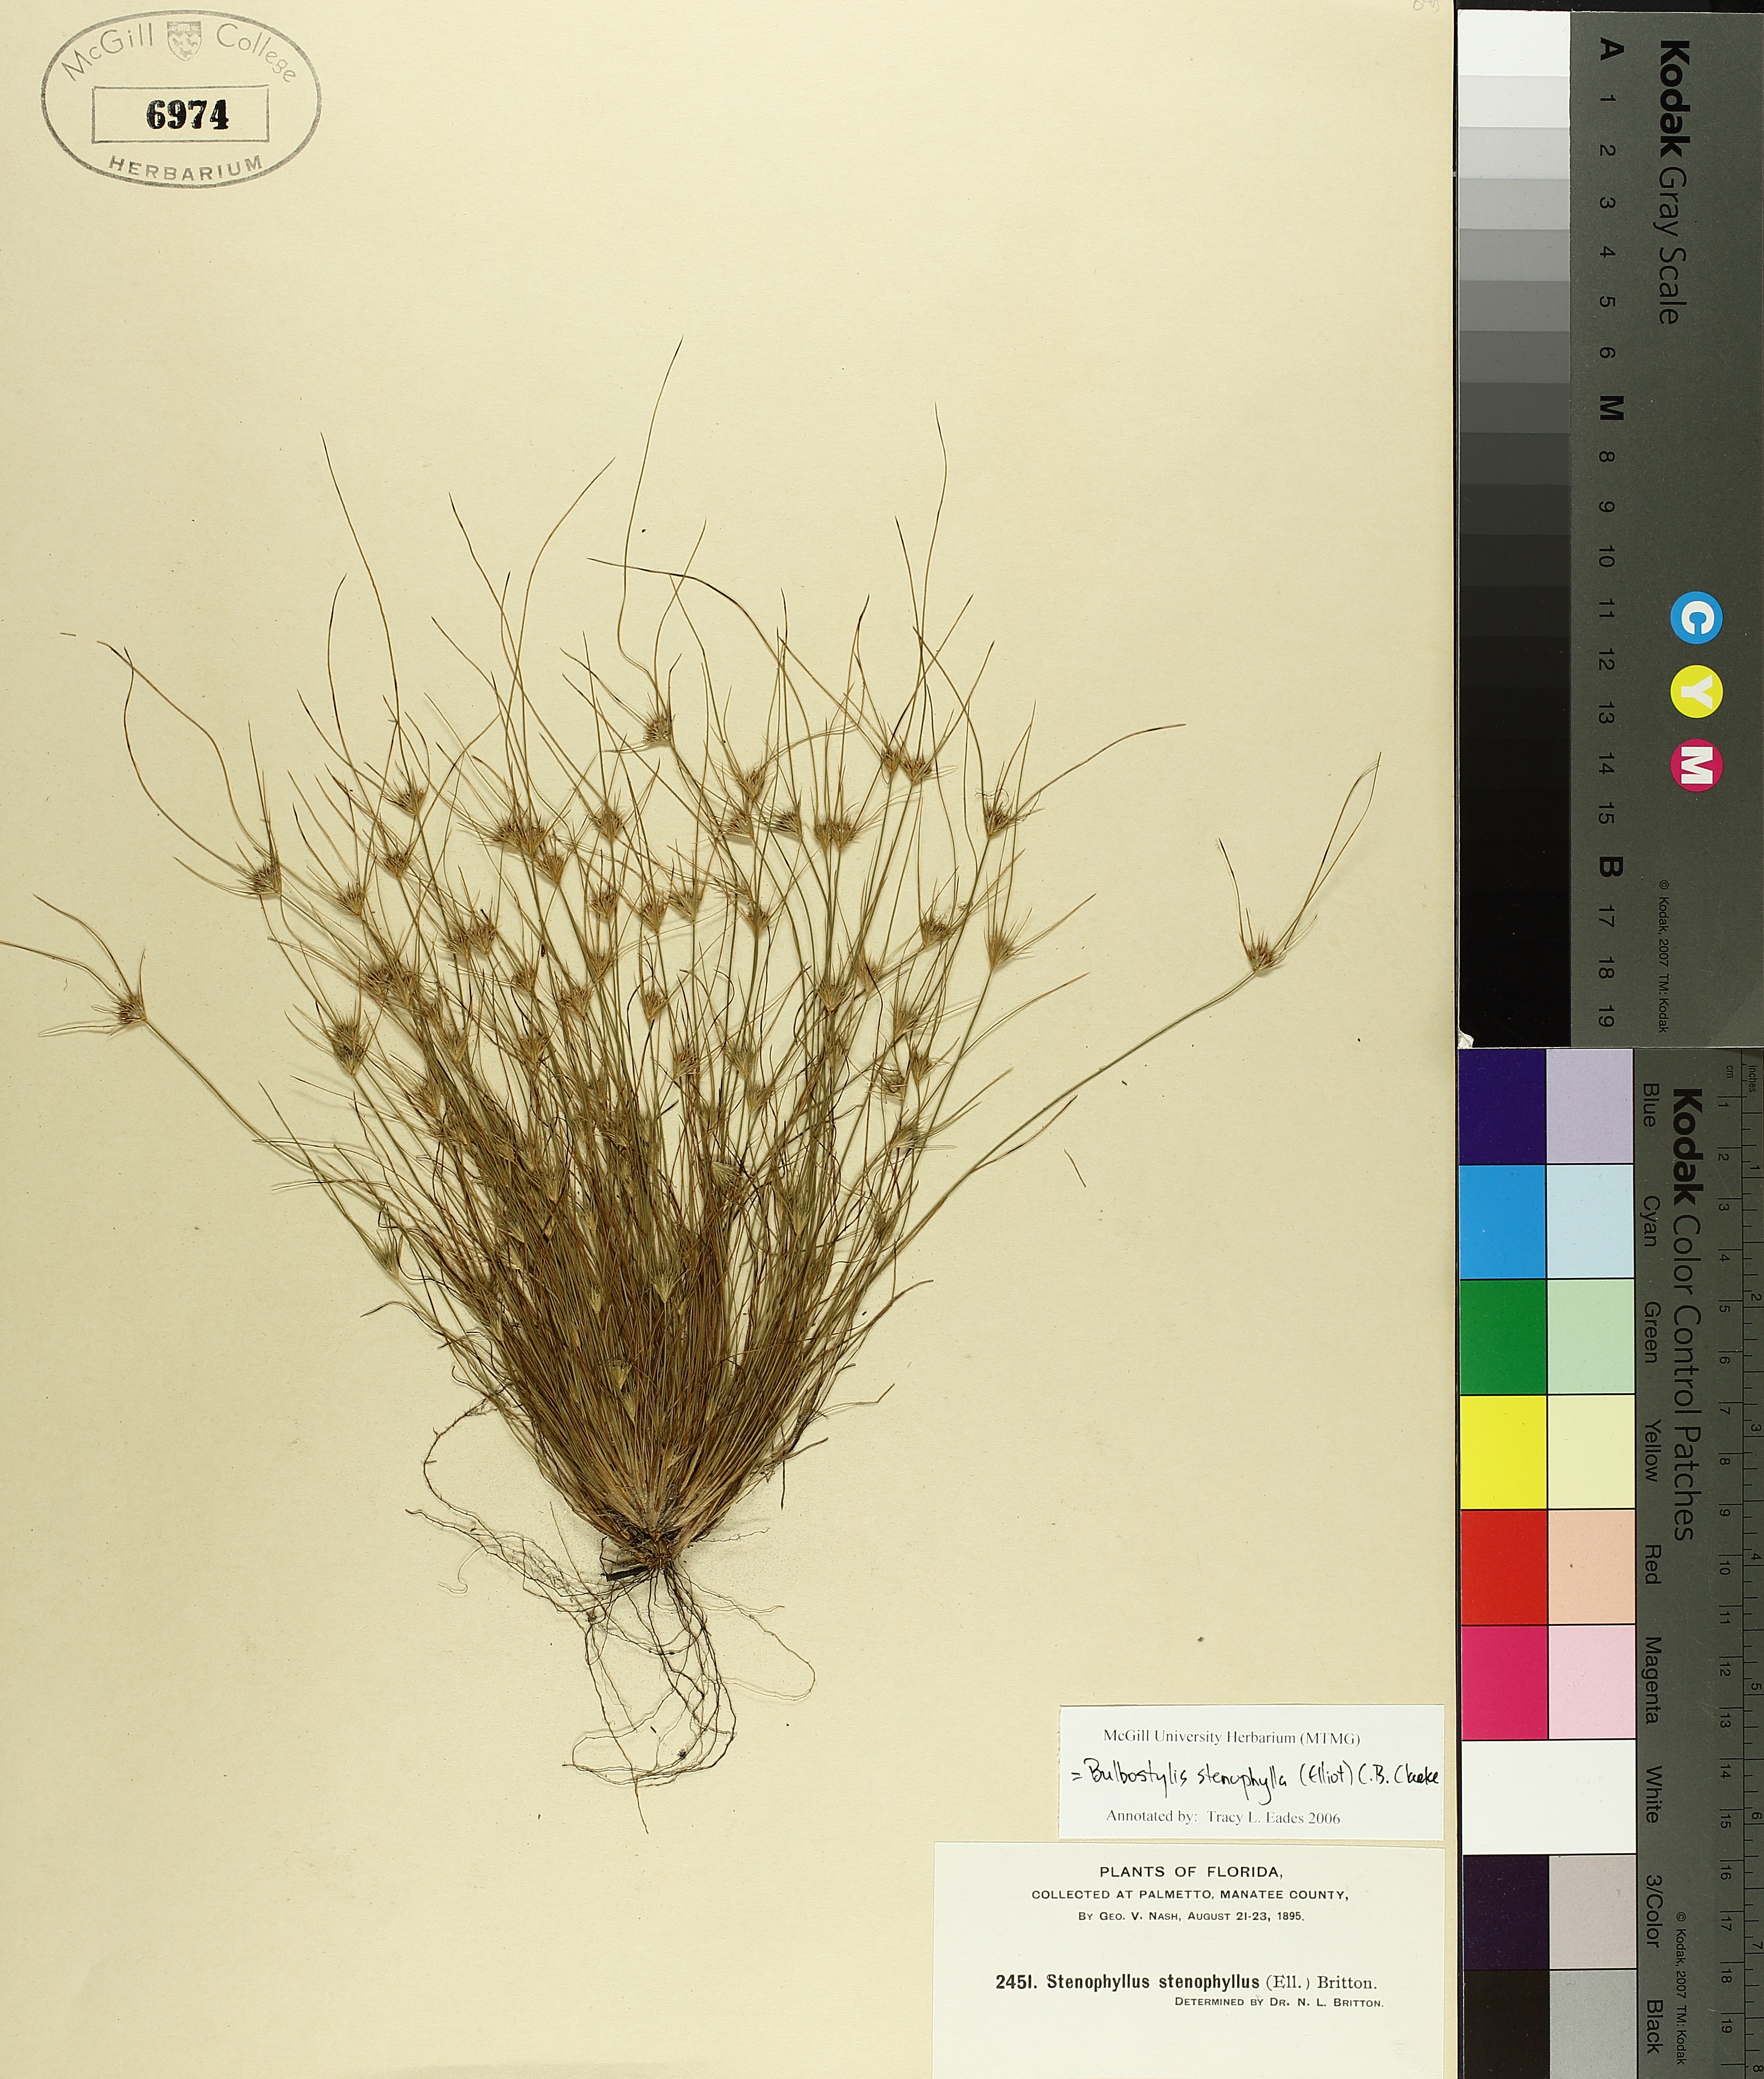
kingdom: Plantae
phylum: Tracheophyta
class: Liliopsida
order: Poales
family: Cyperaceae
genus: Bulbostylis
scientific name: Bulbostylis stenophylla
